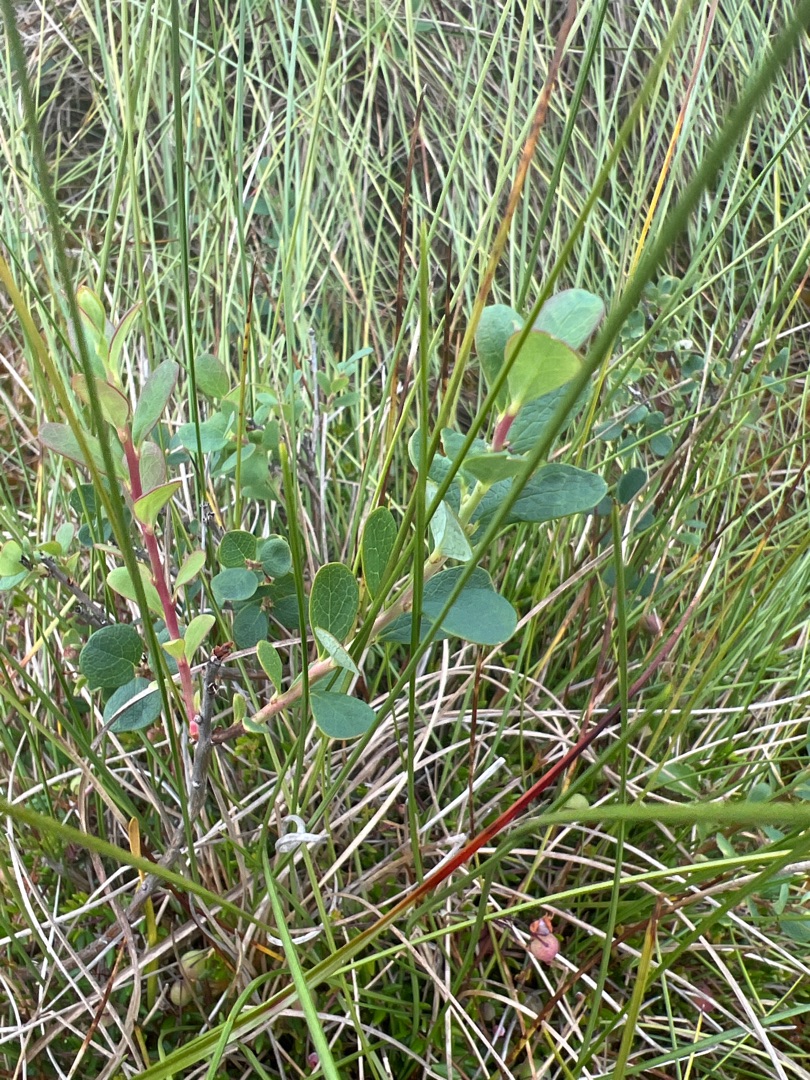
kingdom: Plantae
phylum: Tracheophyta
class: Magnoliopsida
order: Ericales
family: Ericaceae
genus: Vaccinium
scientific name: Vaccinium uliginosum
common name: Mose-bølle
